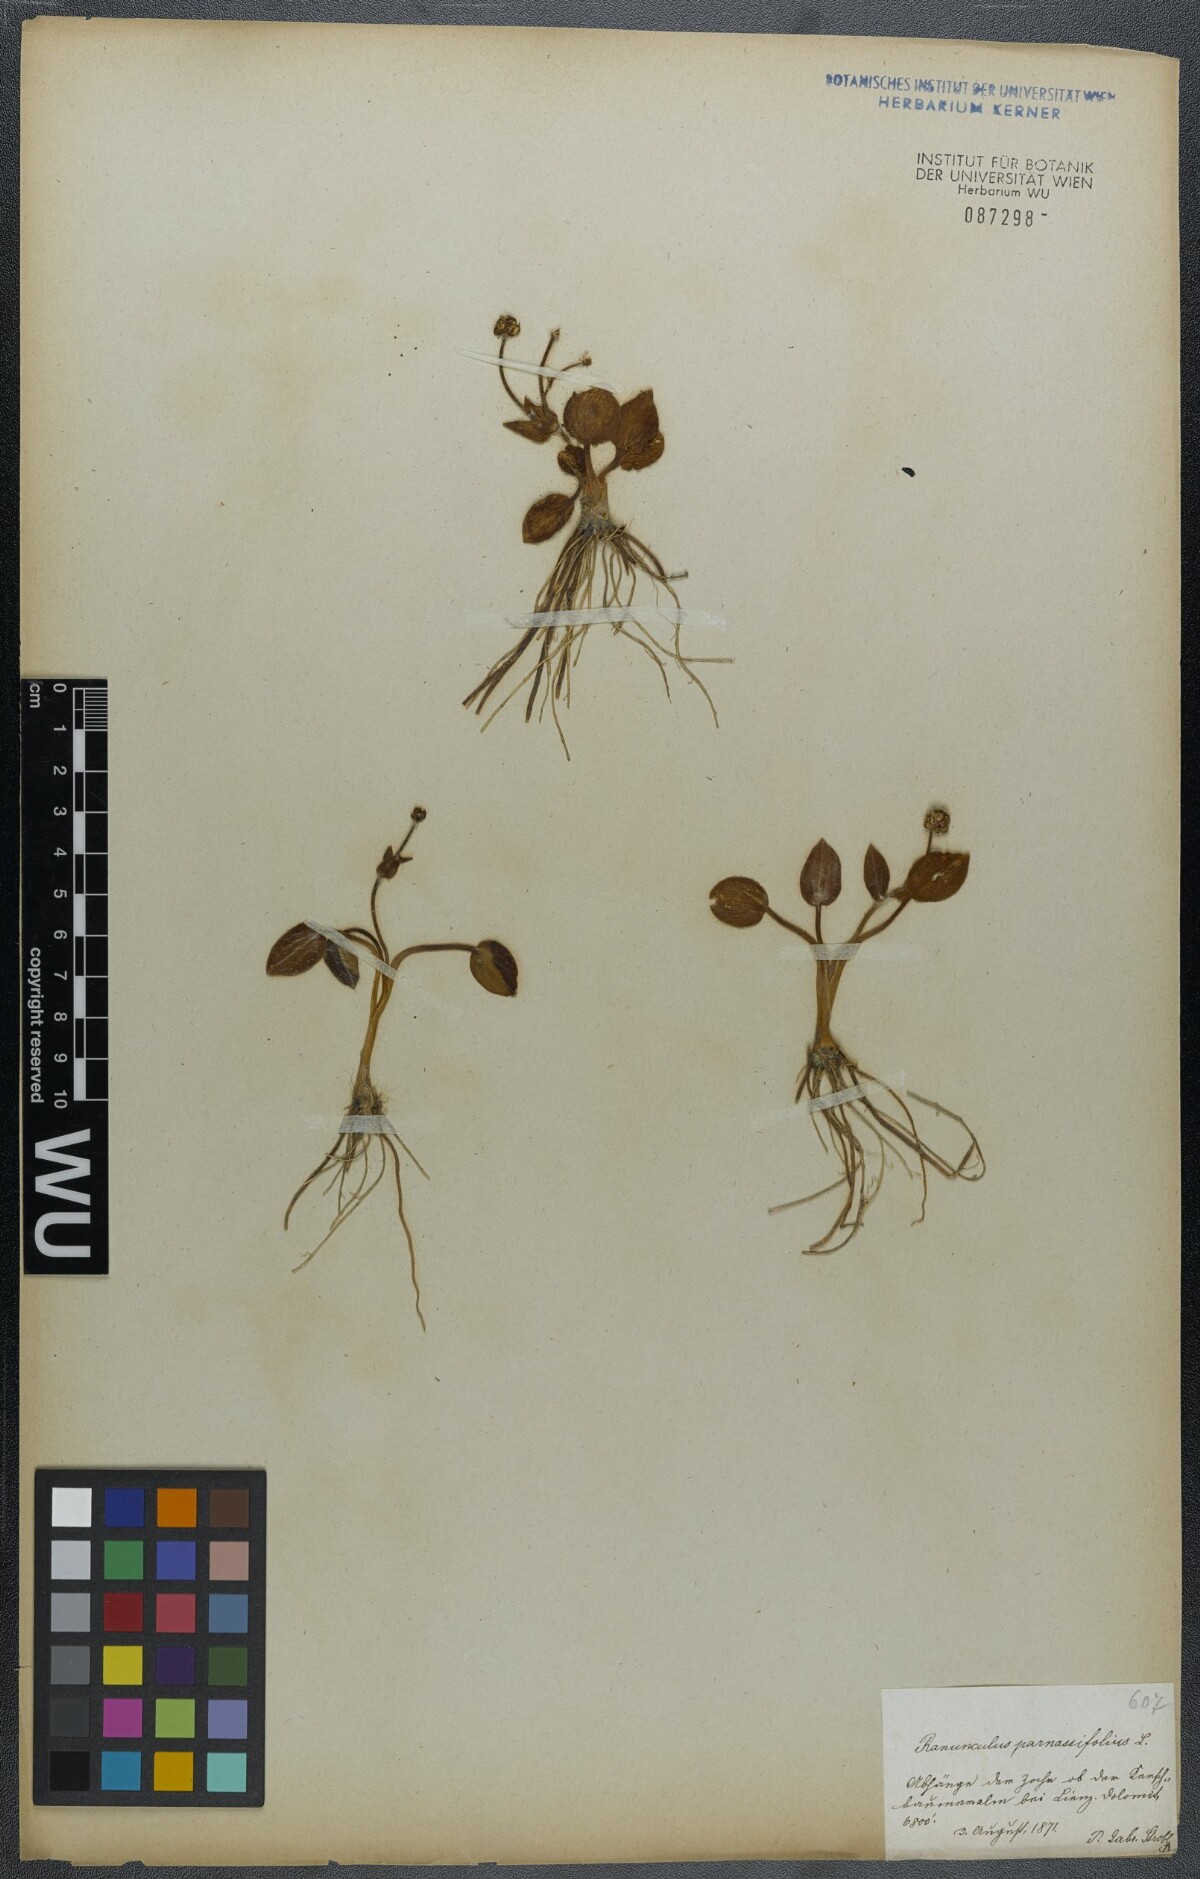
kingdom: Plantae
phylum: Tracheophyta
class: Magnoliopsida
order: Ranunculales
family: Ranunculaceae
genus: Ranunculus
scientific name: Ranunculus parnassiifolius
